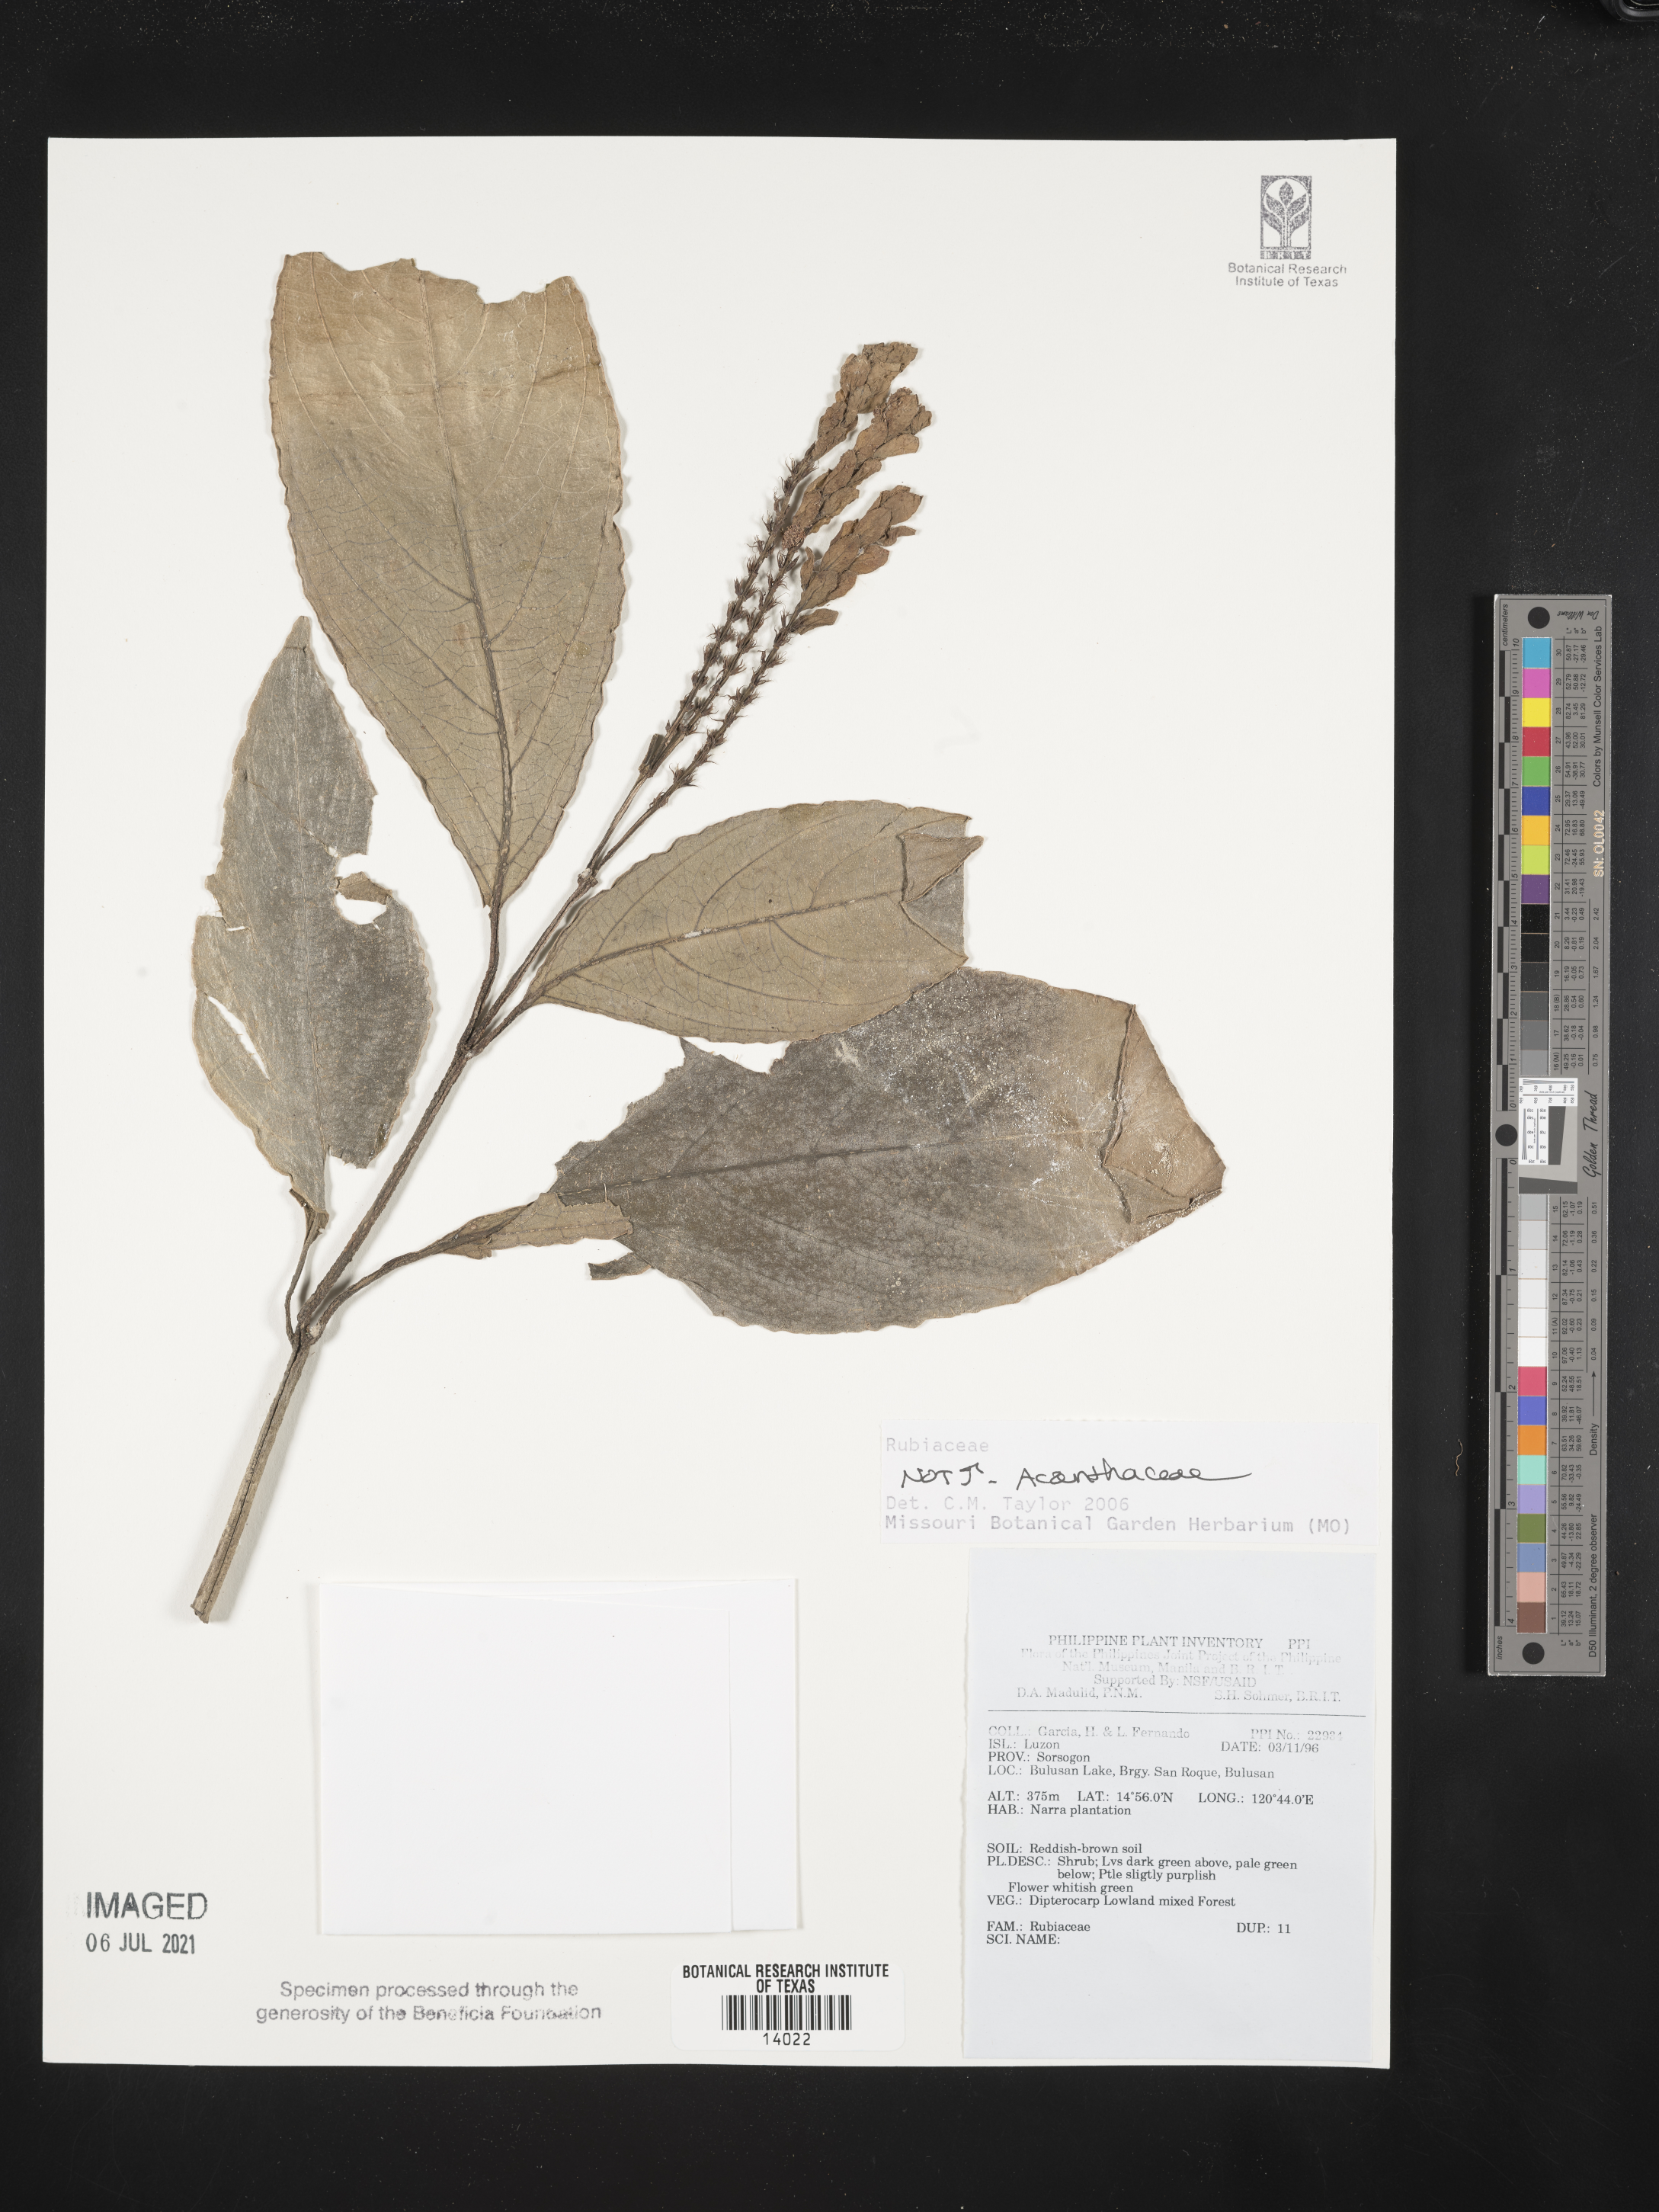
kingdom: Plantae
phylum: Tracheophyta
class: Magnoliopsida
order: Lamiales
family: Acanthaceae
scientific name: Acanthaceae
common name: Acanthaceae
